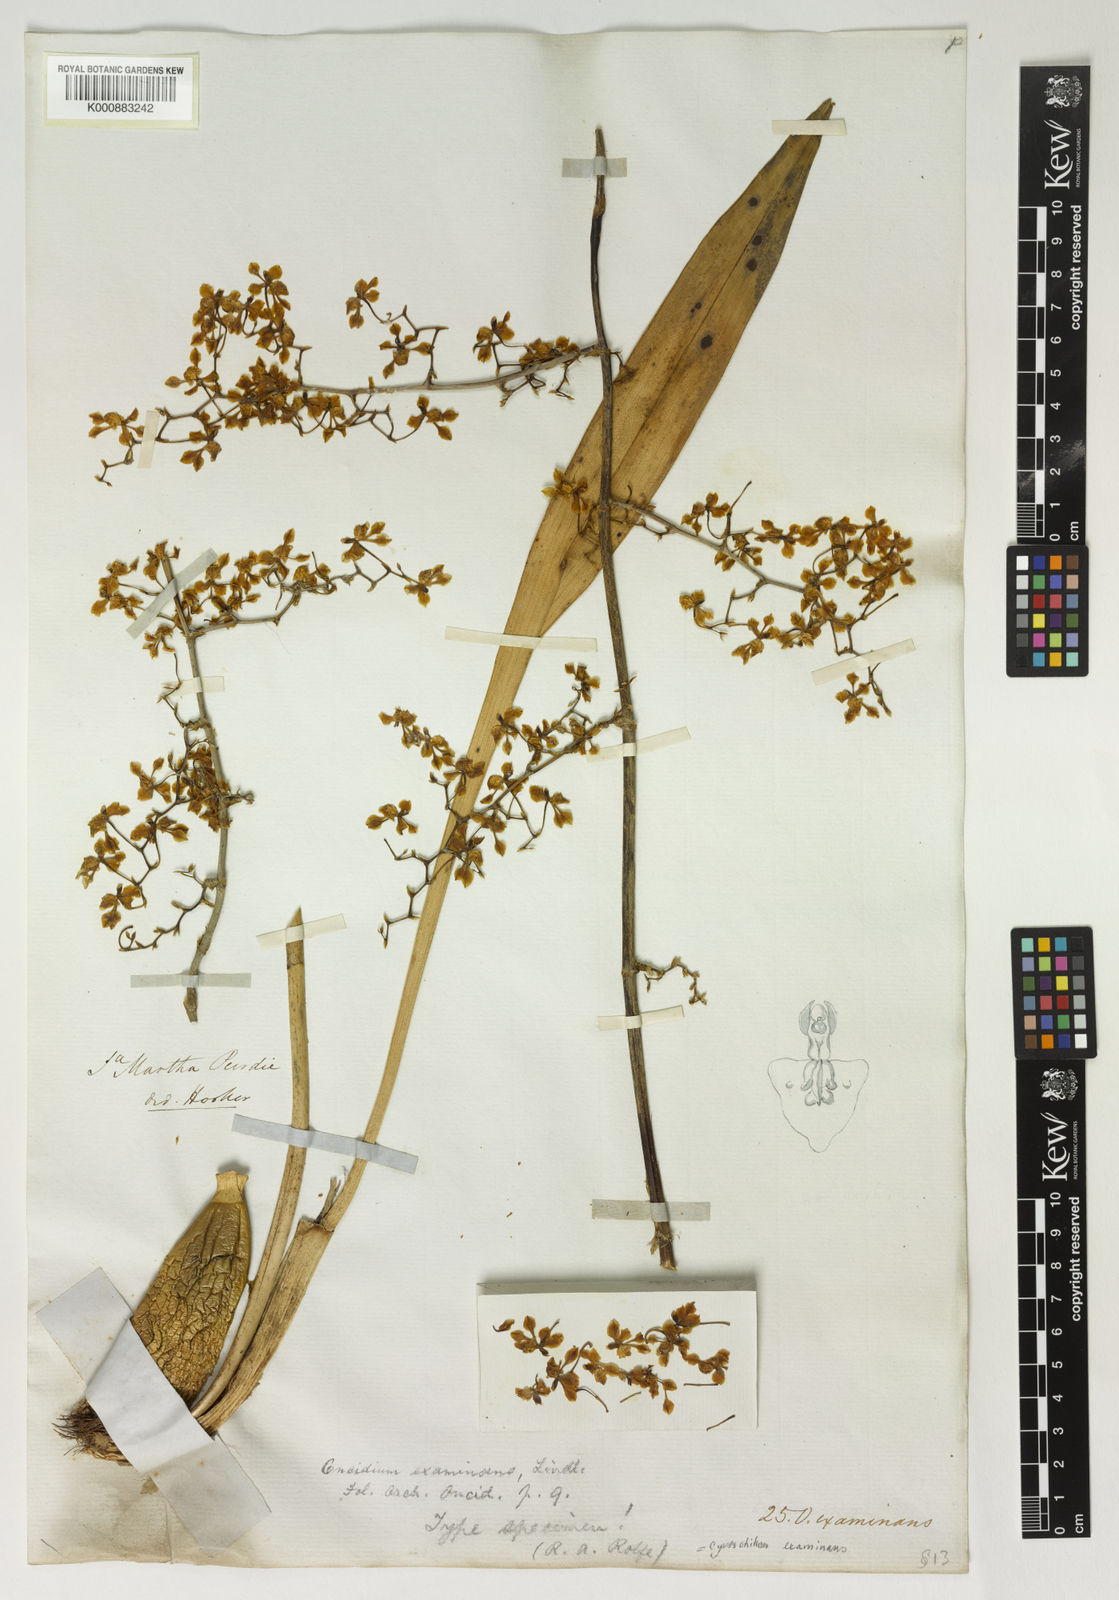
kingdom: Plantae
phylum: Tracheophyta
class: Liliopsida
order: Asparagales
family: Orchidaceae
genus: Cyrtochilum
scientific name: Cyrtochilum examinans
